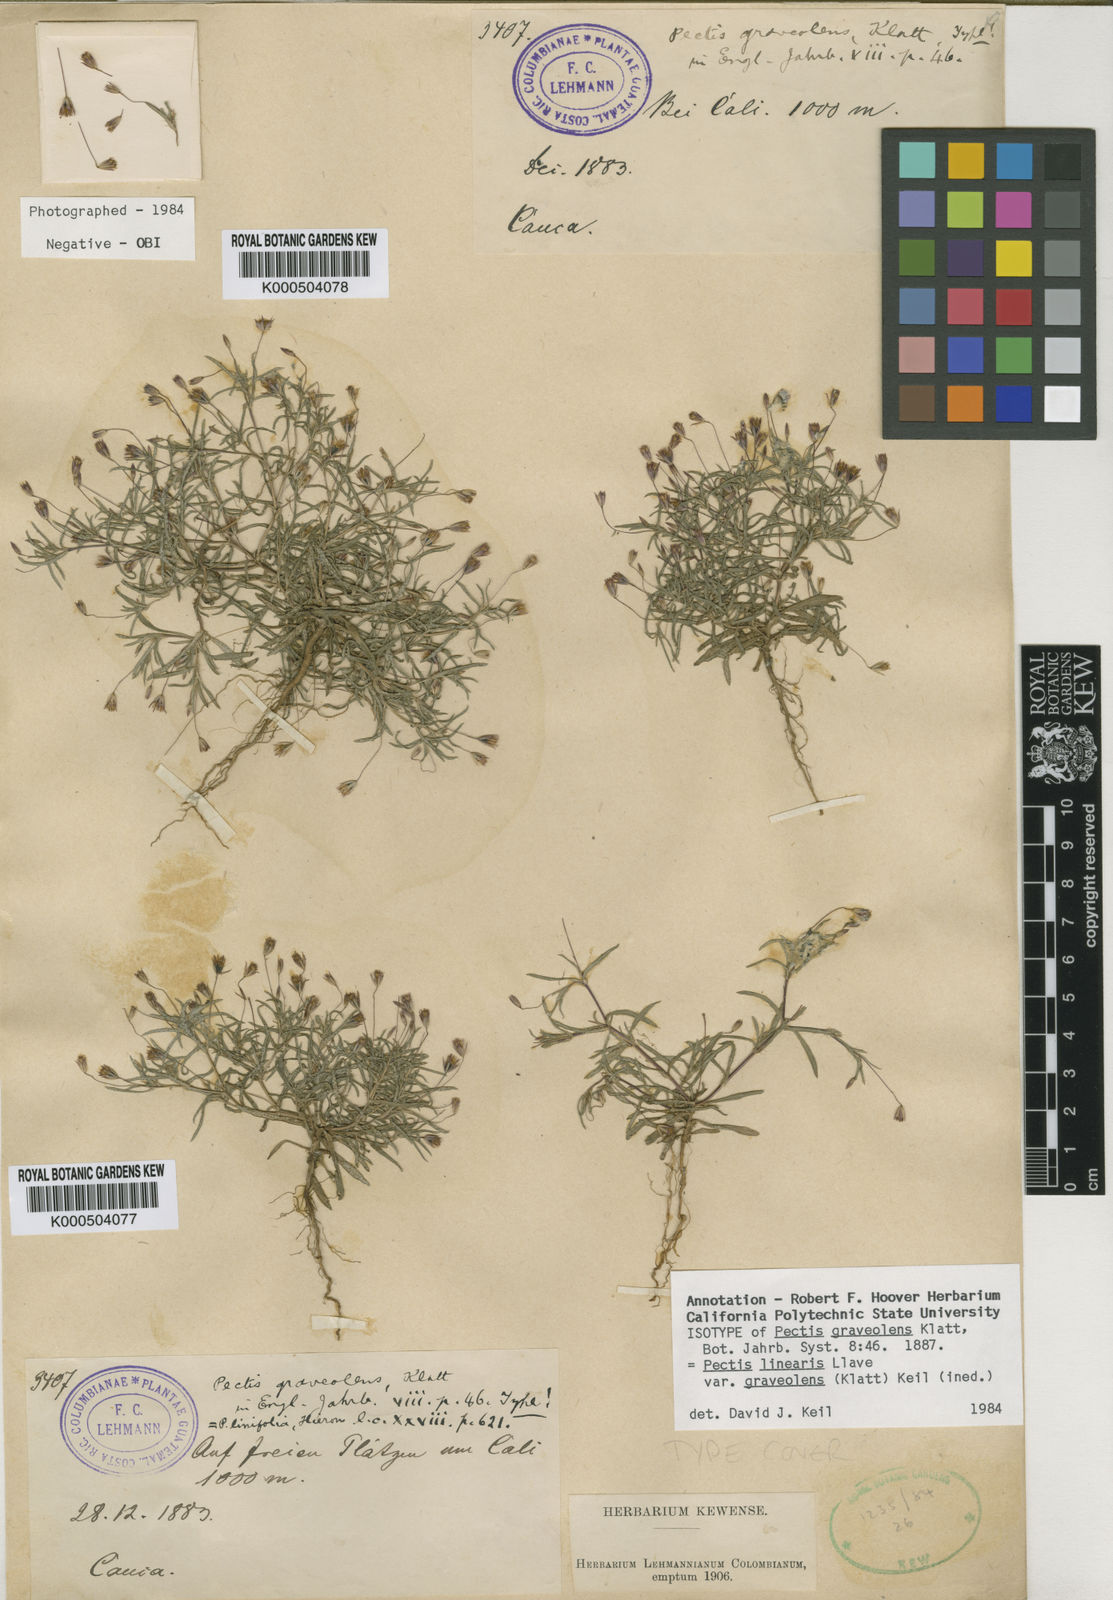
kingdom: Plantae
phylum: Tracheophyta
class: Magnoliopsida
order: Asterales
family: Asteraceae
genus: Pectis
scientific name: Pectis linearis
